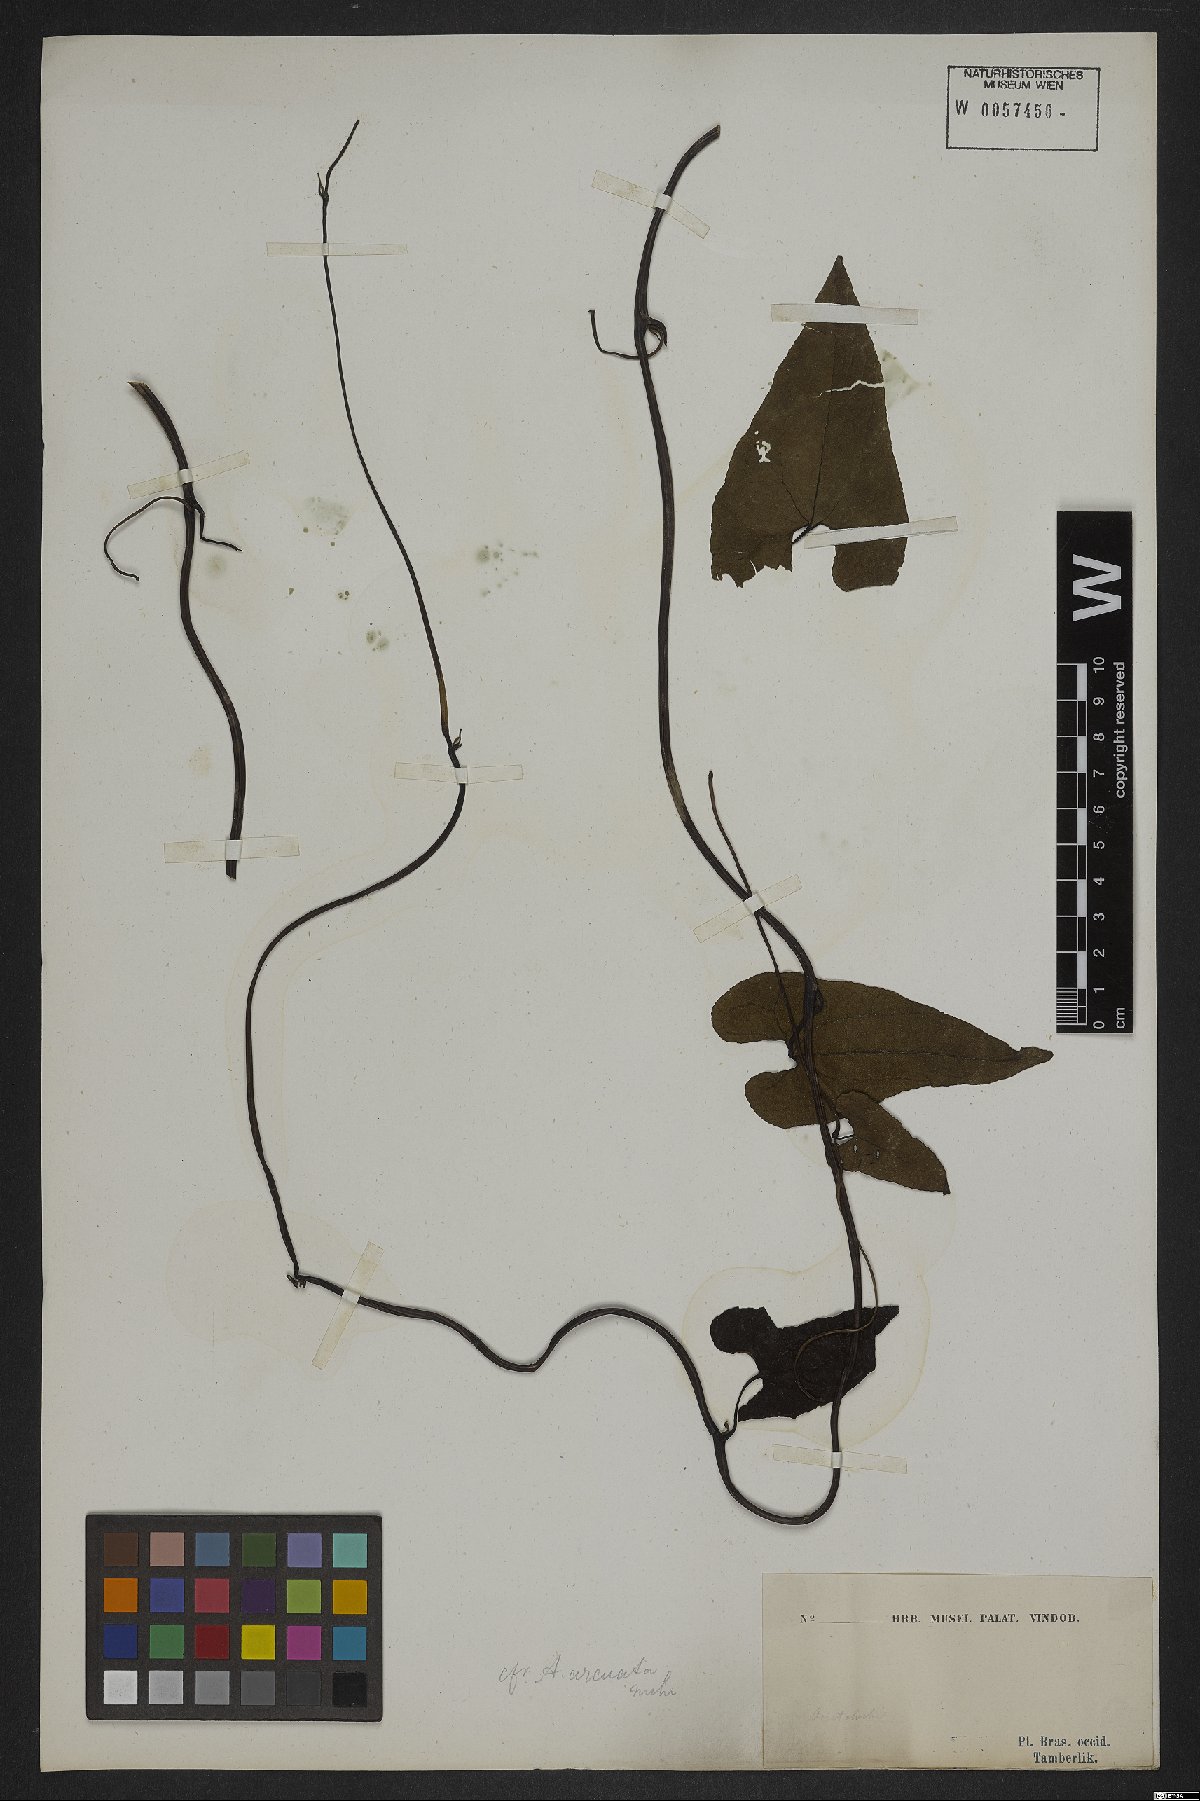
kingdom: Plantae
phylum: Tracheophyta
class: Magnoliopsida
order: Piperales
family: Aristolochiaceae
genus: Aristolochia
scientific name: Aristolochia arcuata
